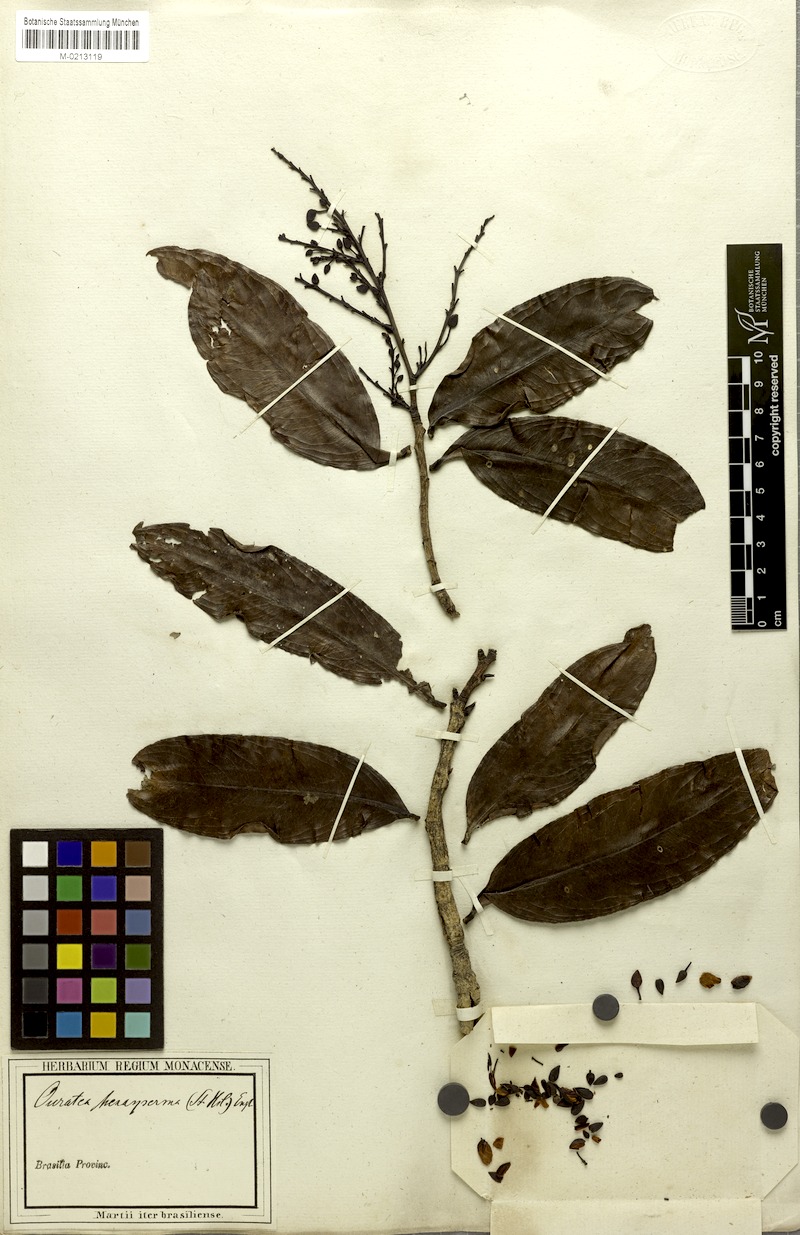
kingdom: Plantae
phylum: Tracheophyta
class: Magnoliopsida
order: Malpighiales
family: Ochnaceae
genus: Ouratea
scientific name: Ouratea hexasperma
